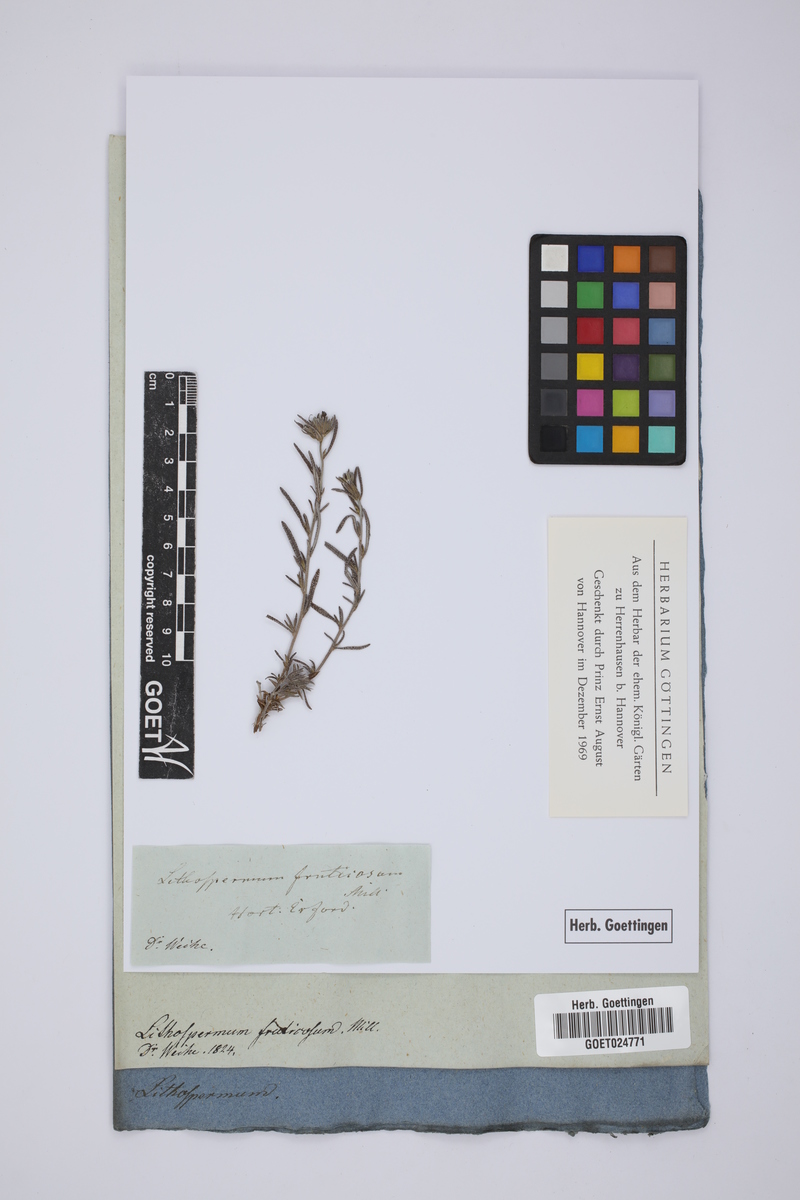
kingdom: Plantae
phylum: Tracheophyta
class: Magnoliopsida
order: Boraginales
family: Boraginaceae
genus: Lithodora
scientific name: Lithodora fruticosa
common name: Shrubby gromwell
